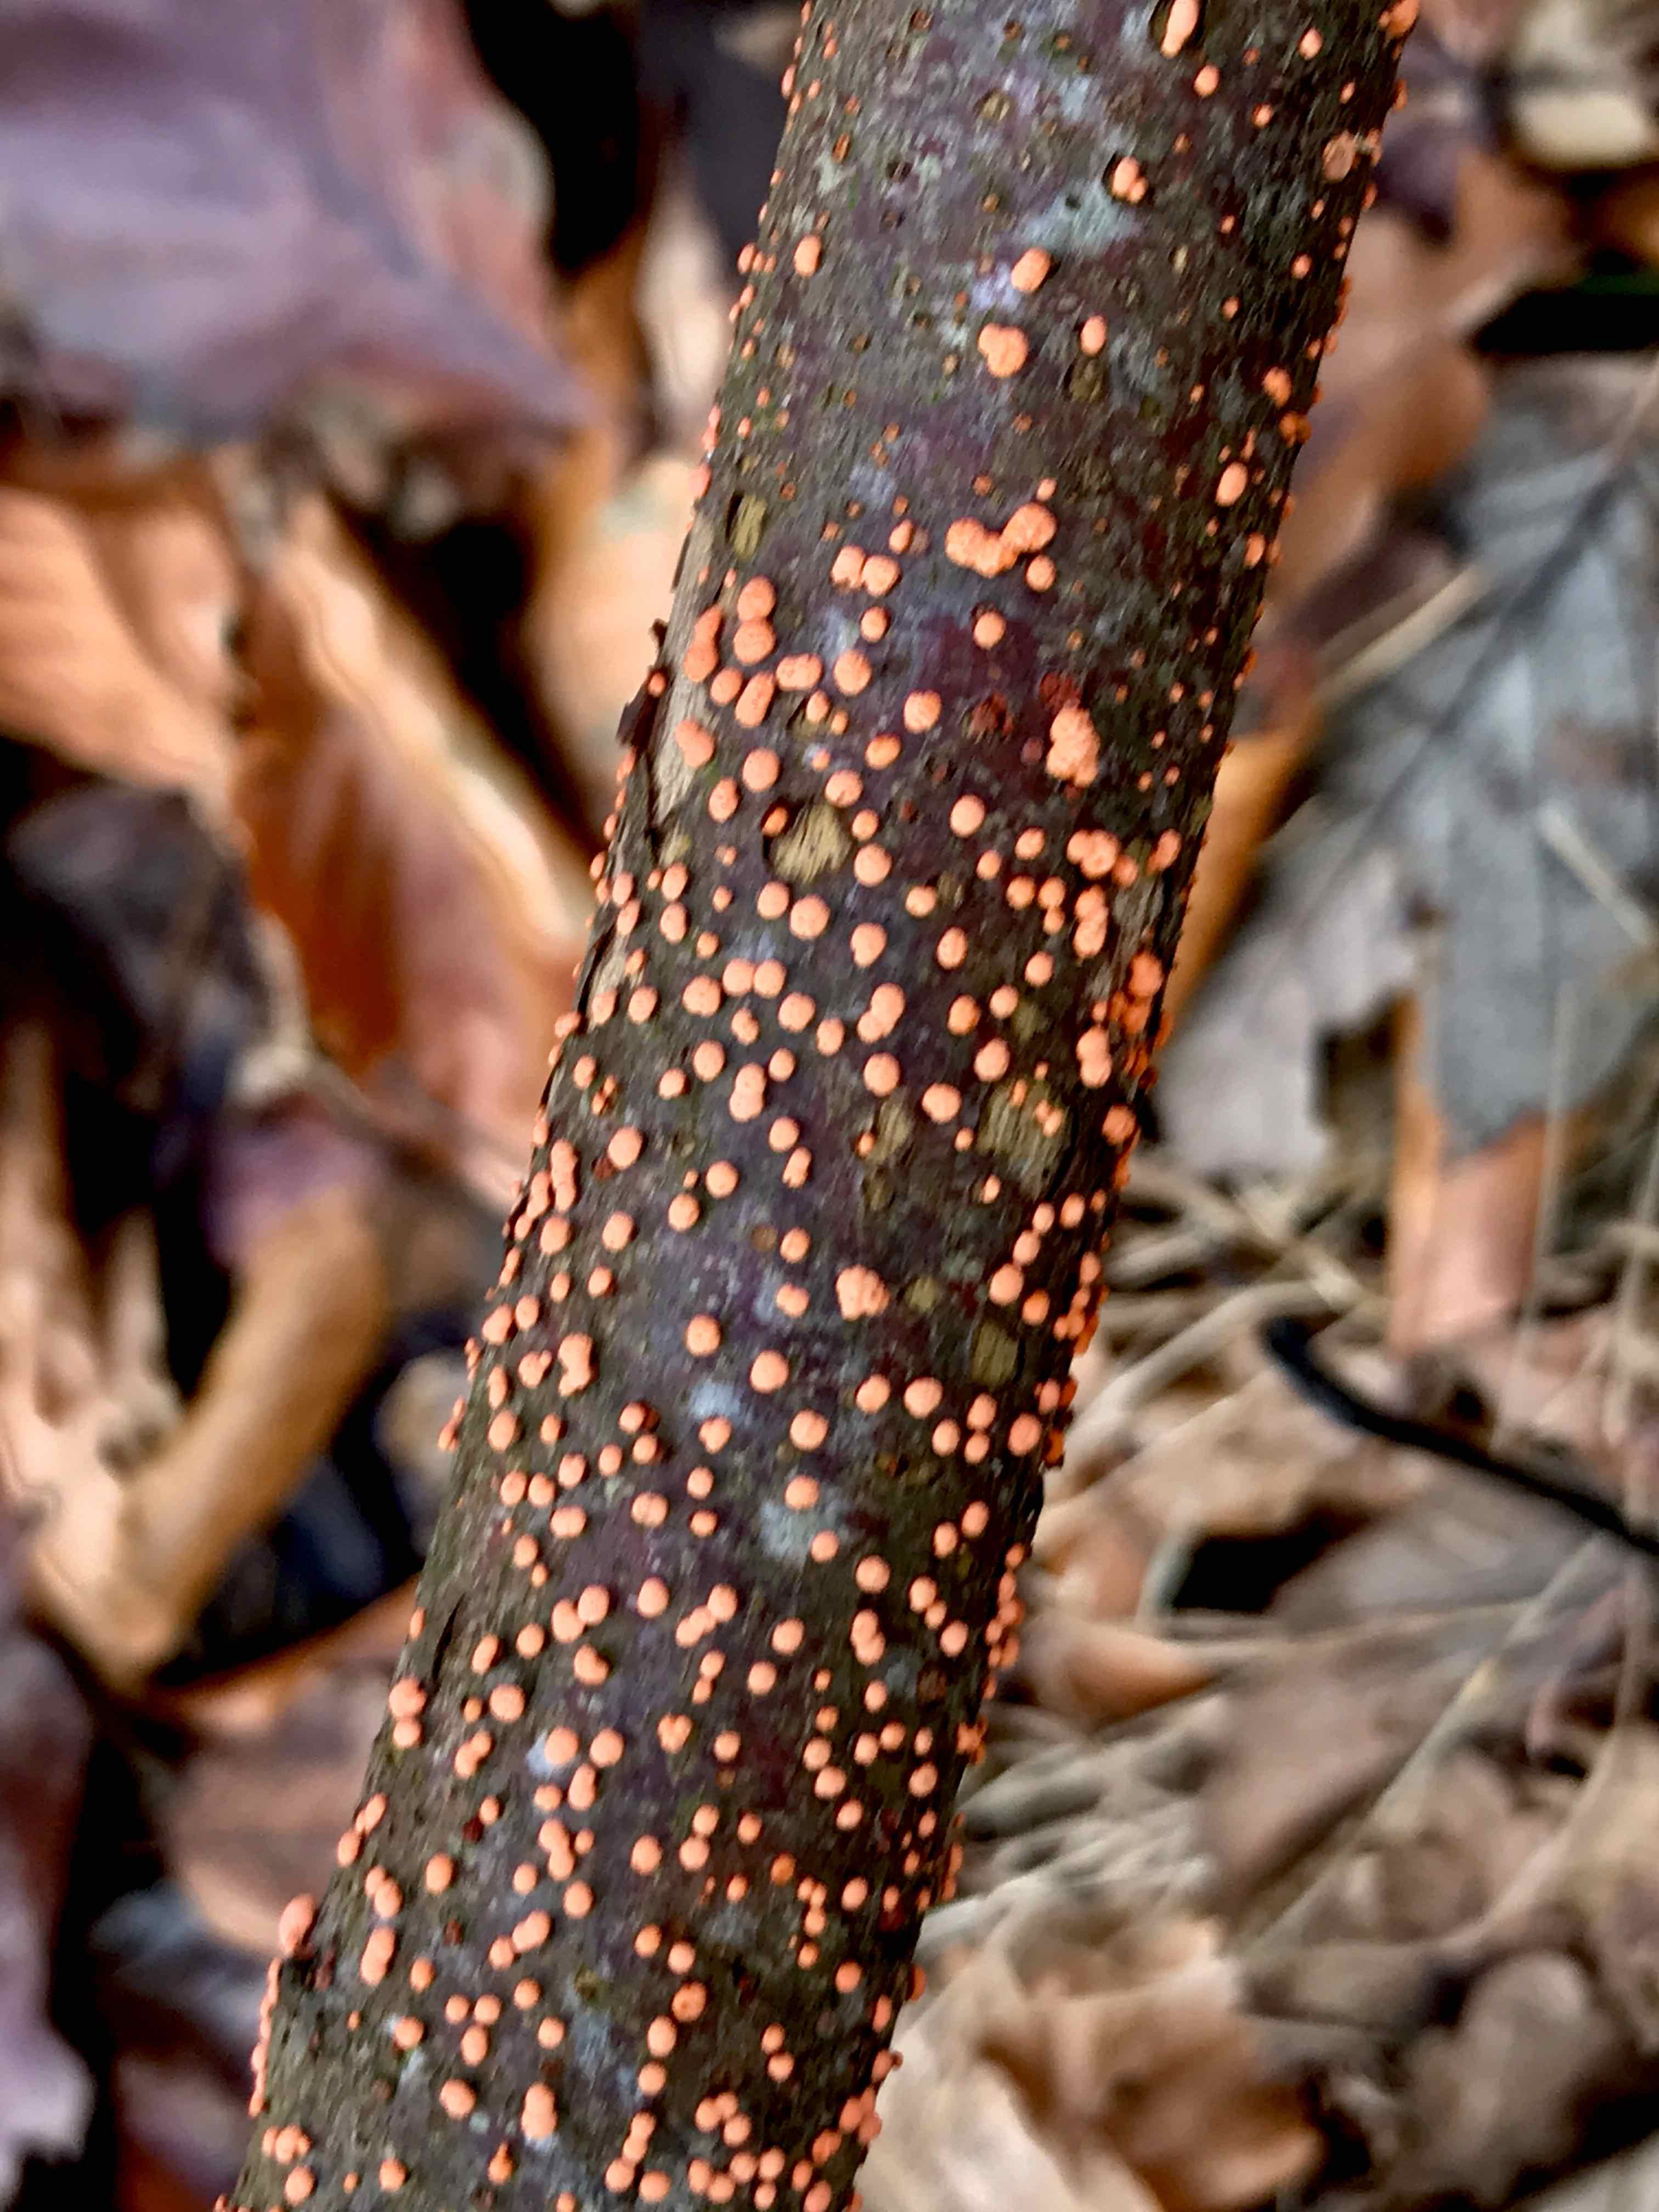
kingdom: Fungi
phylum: Ascomycota
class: Sordariomycetes
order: Hypocreales
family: Nectriaceae
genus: Nectria
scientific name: Nectria cinnabarina
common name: almindelig cinnobersvamp
